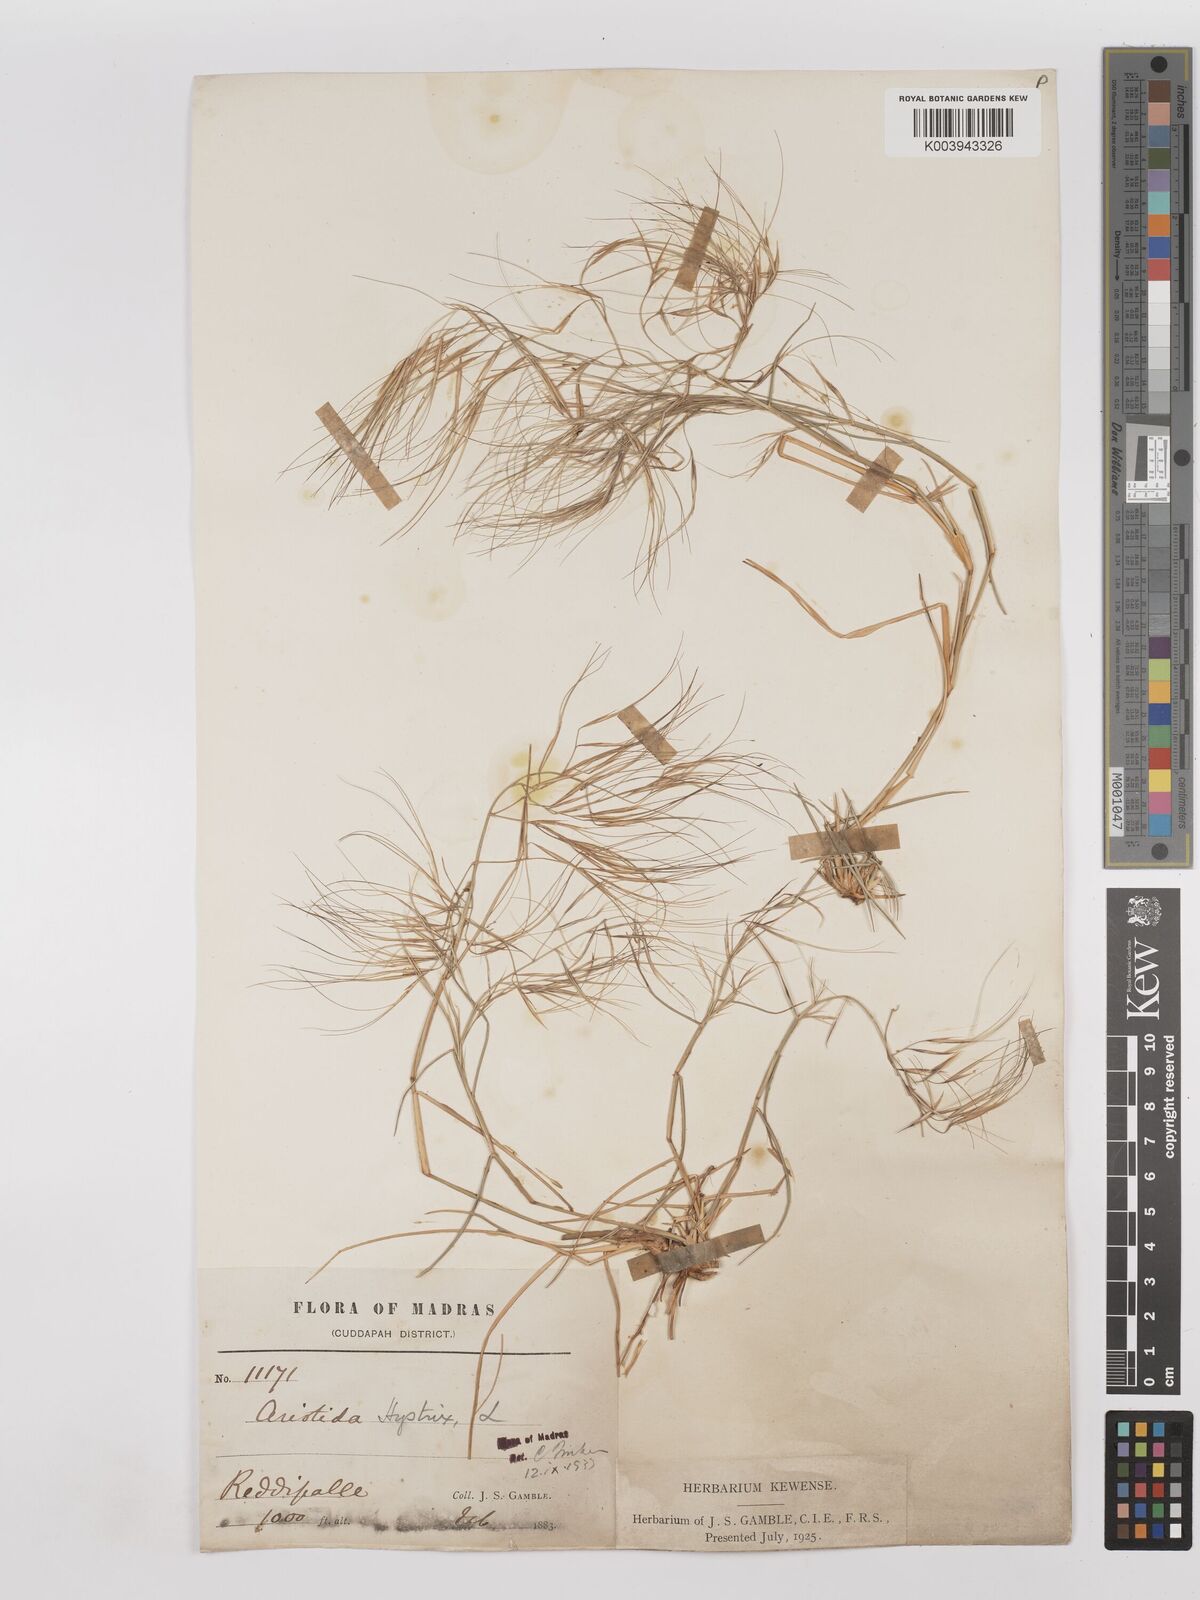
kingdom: Plantae
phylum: Tracheophyta
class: Liliopsida
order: Poales
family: Poaceae
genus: Aristida
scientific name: Aristida hystrix
